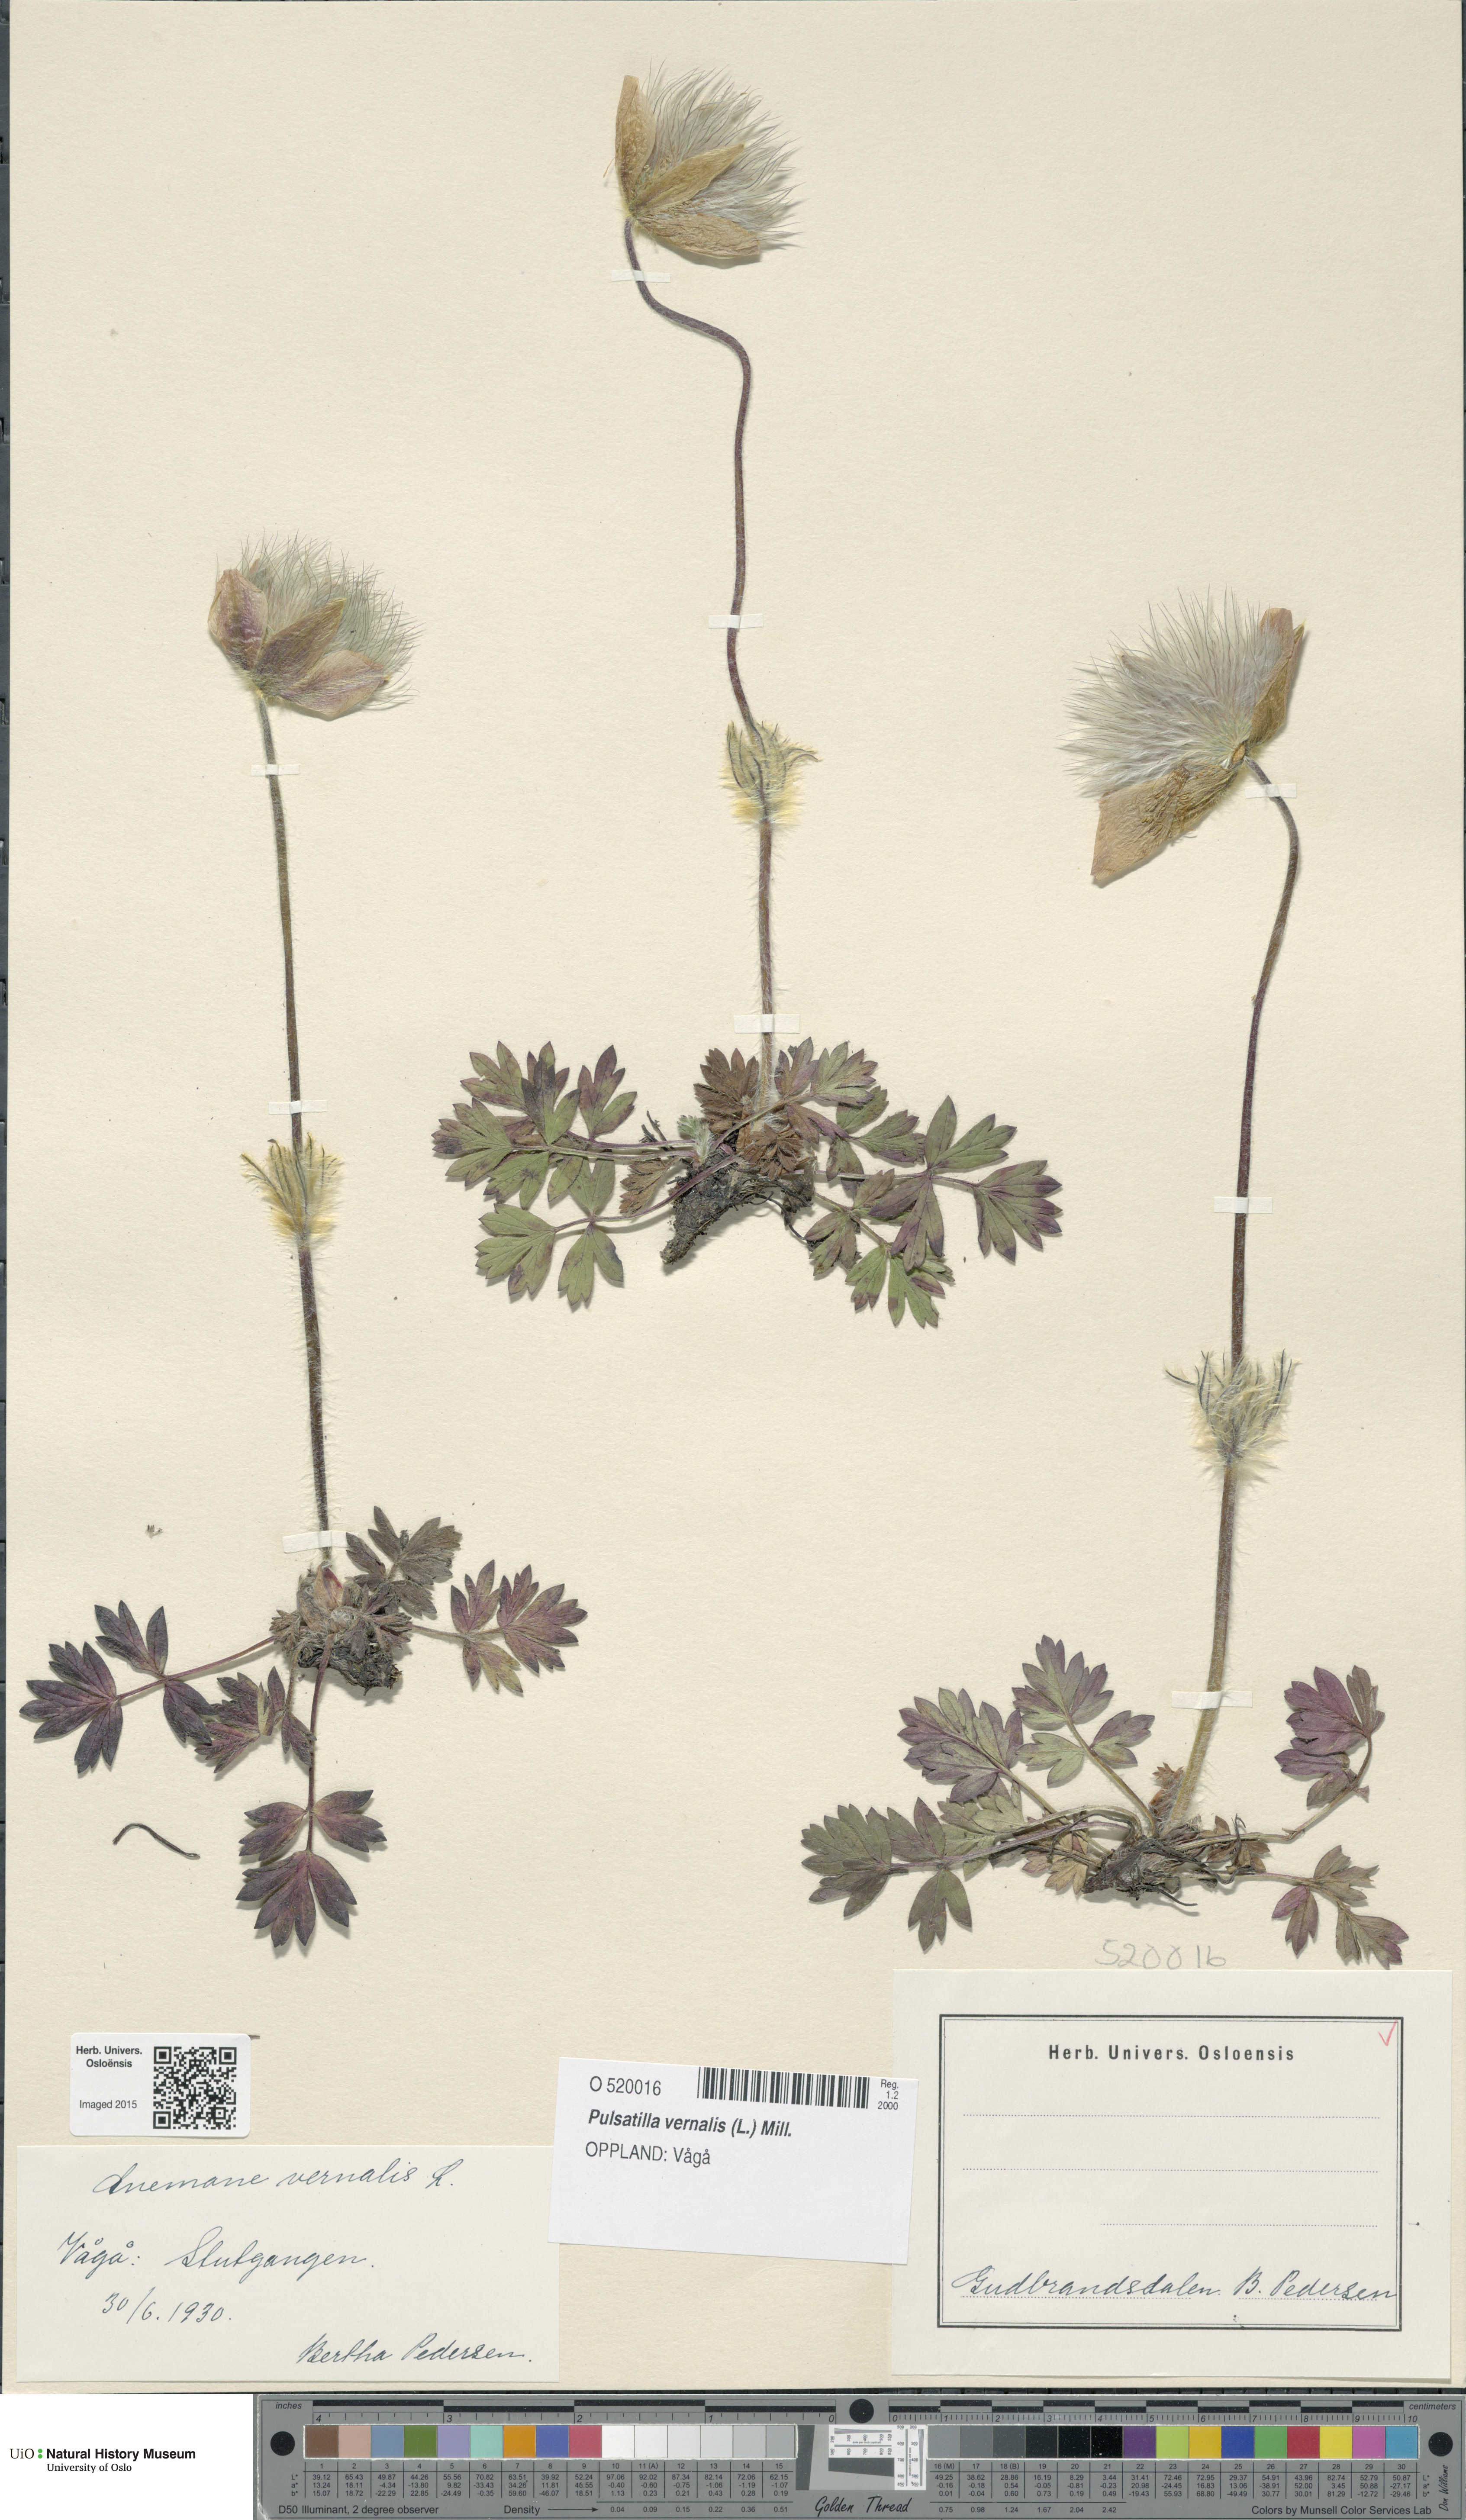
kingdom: Plantae
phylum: Tracheophyta
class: Magnoliopsida
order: Ranunculales
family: Ranunculaceae
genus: Pulsatilla
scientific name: Pulsatilla vernalis
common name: Spring pasque flower
